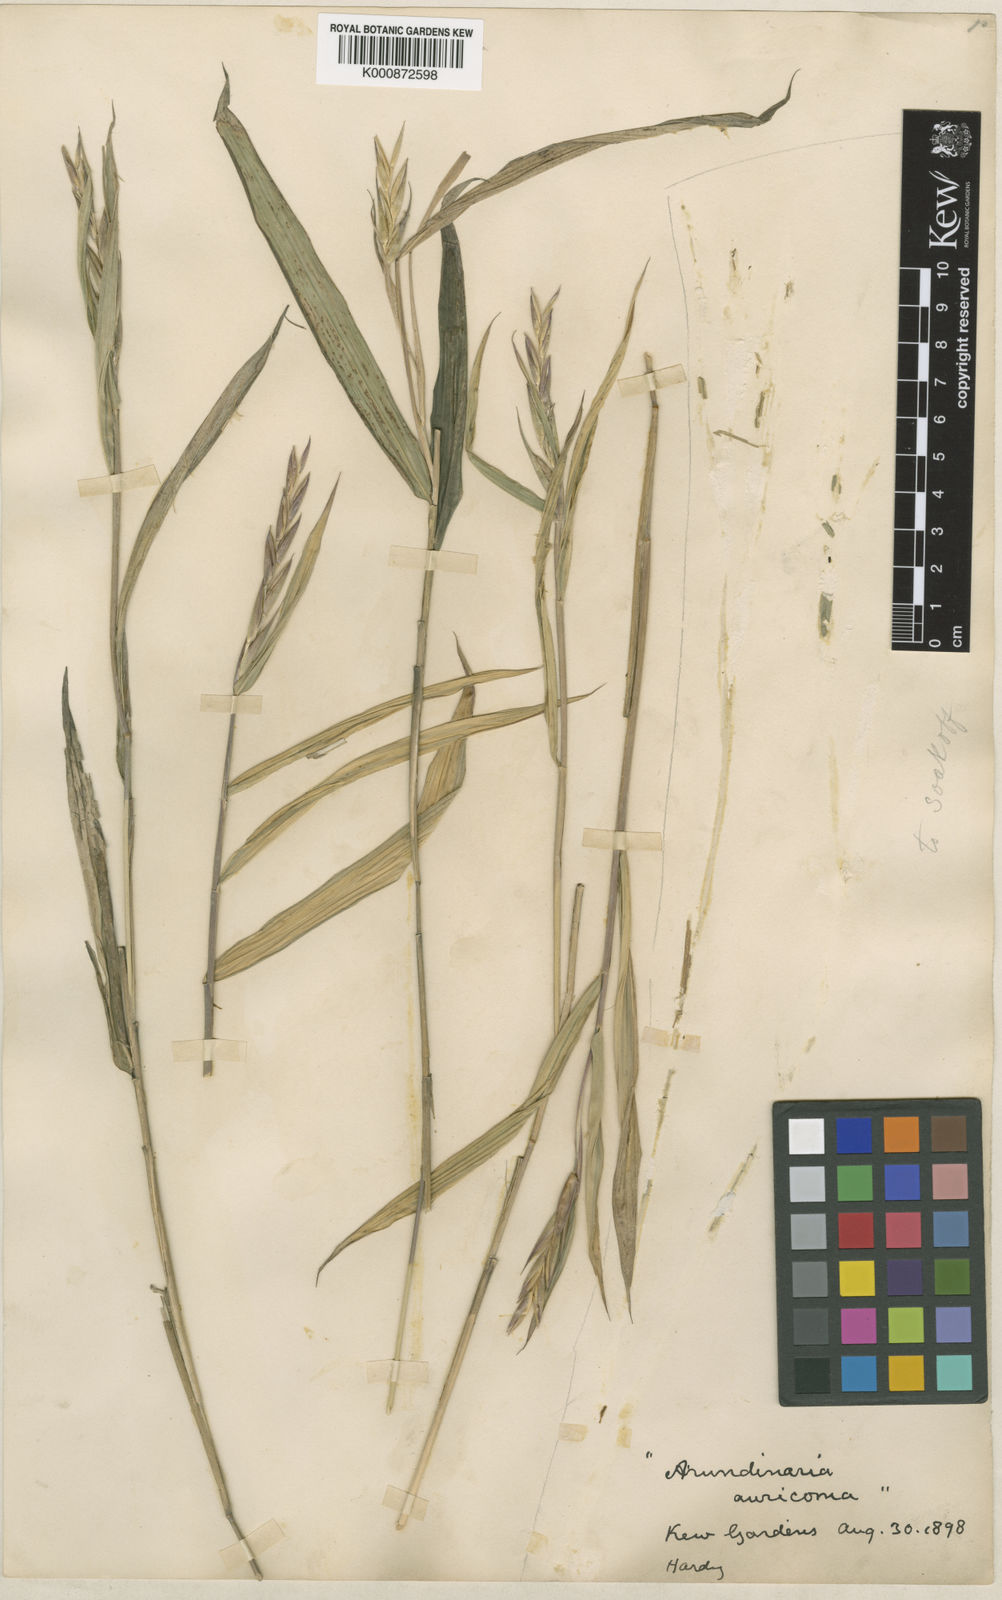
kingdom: Plantae
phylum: Tracheophyta
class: Liliopsida
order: Poales
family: Poaceae
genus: Pleioblastus
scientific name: Pleioblastus viridistriatus
